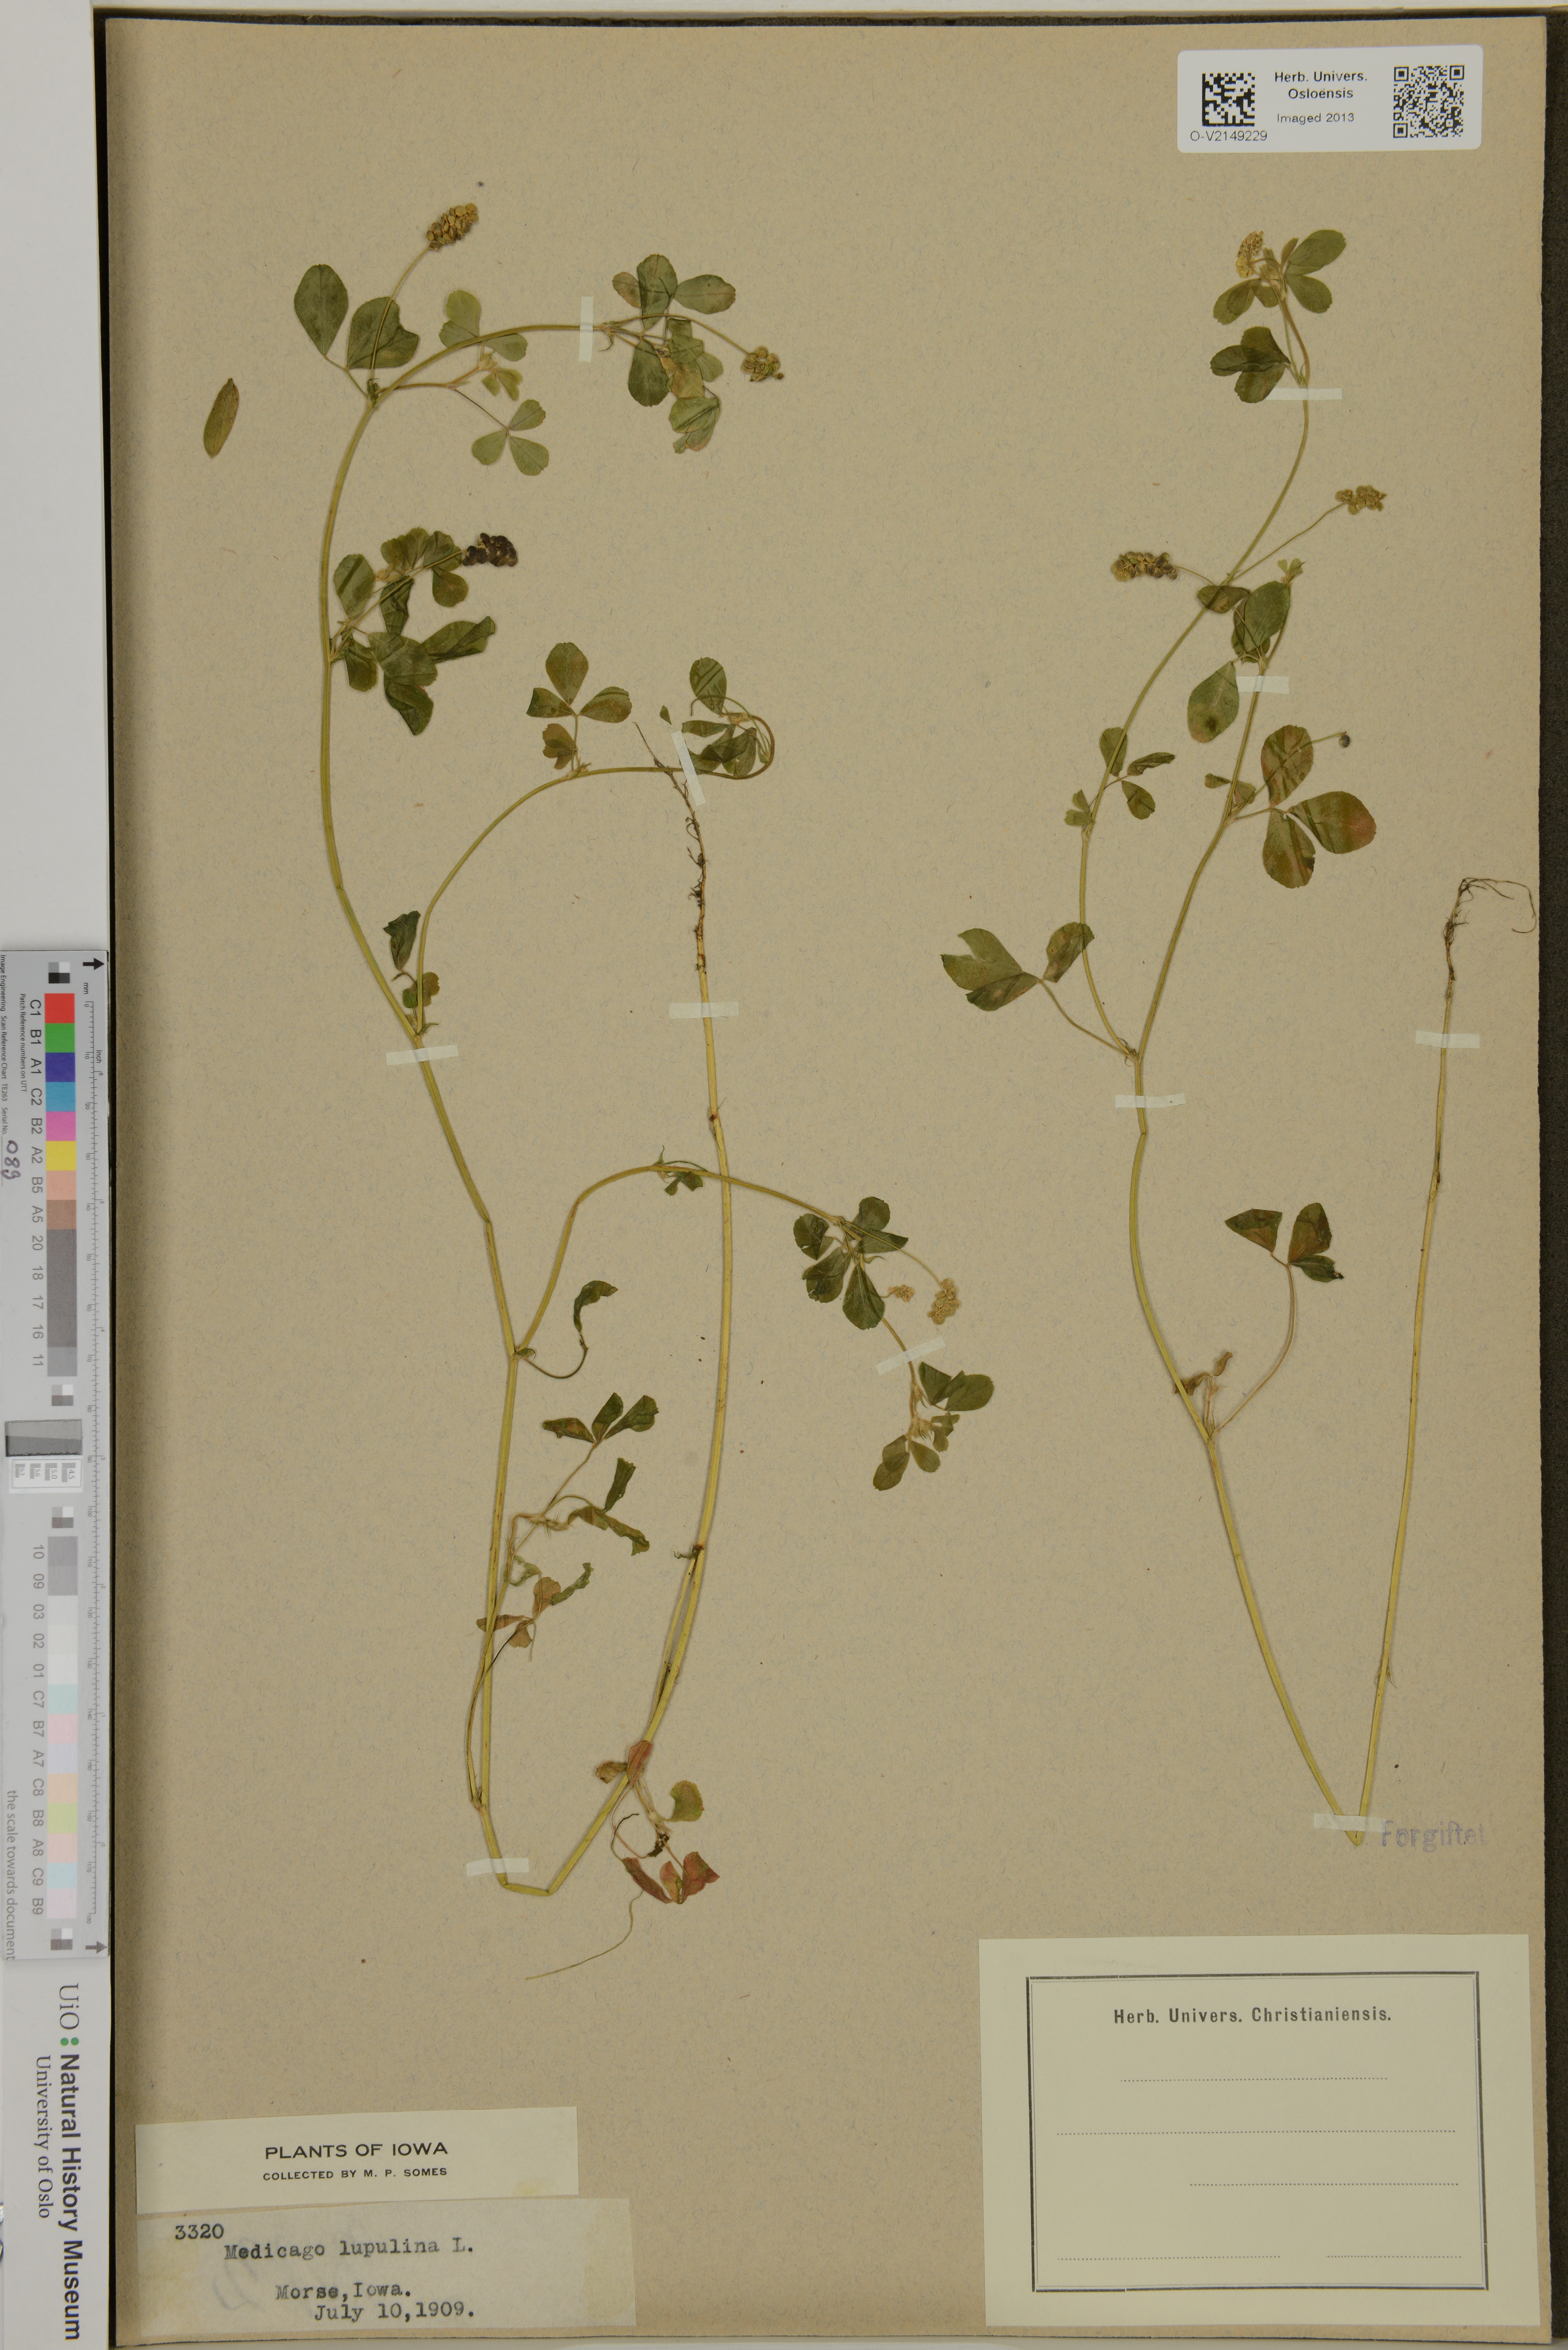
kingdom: Plantae
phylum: Tracheophyta
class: Magnoliopsida
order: Fabales
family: Fabaceae
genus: Medicago
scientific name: Medicago lupulina
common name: Black medick
